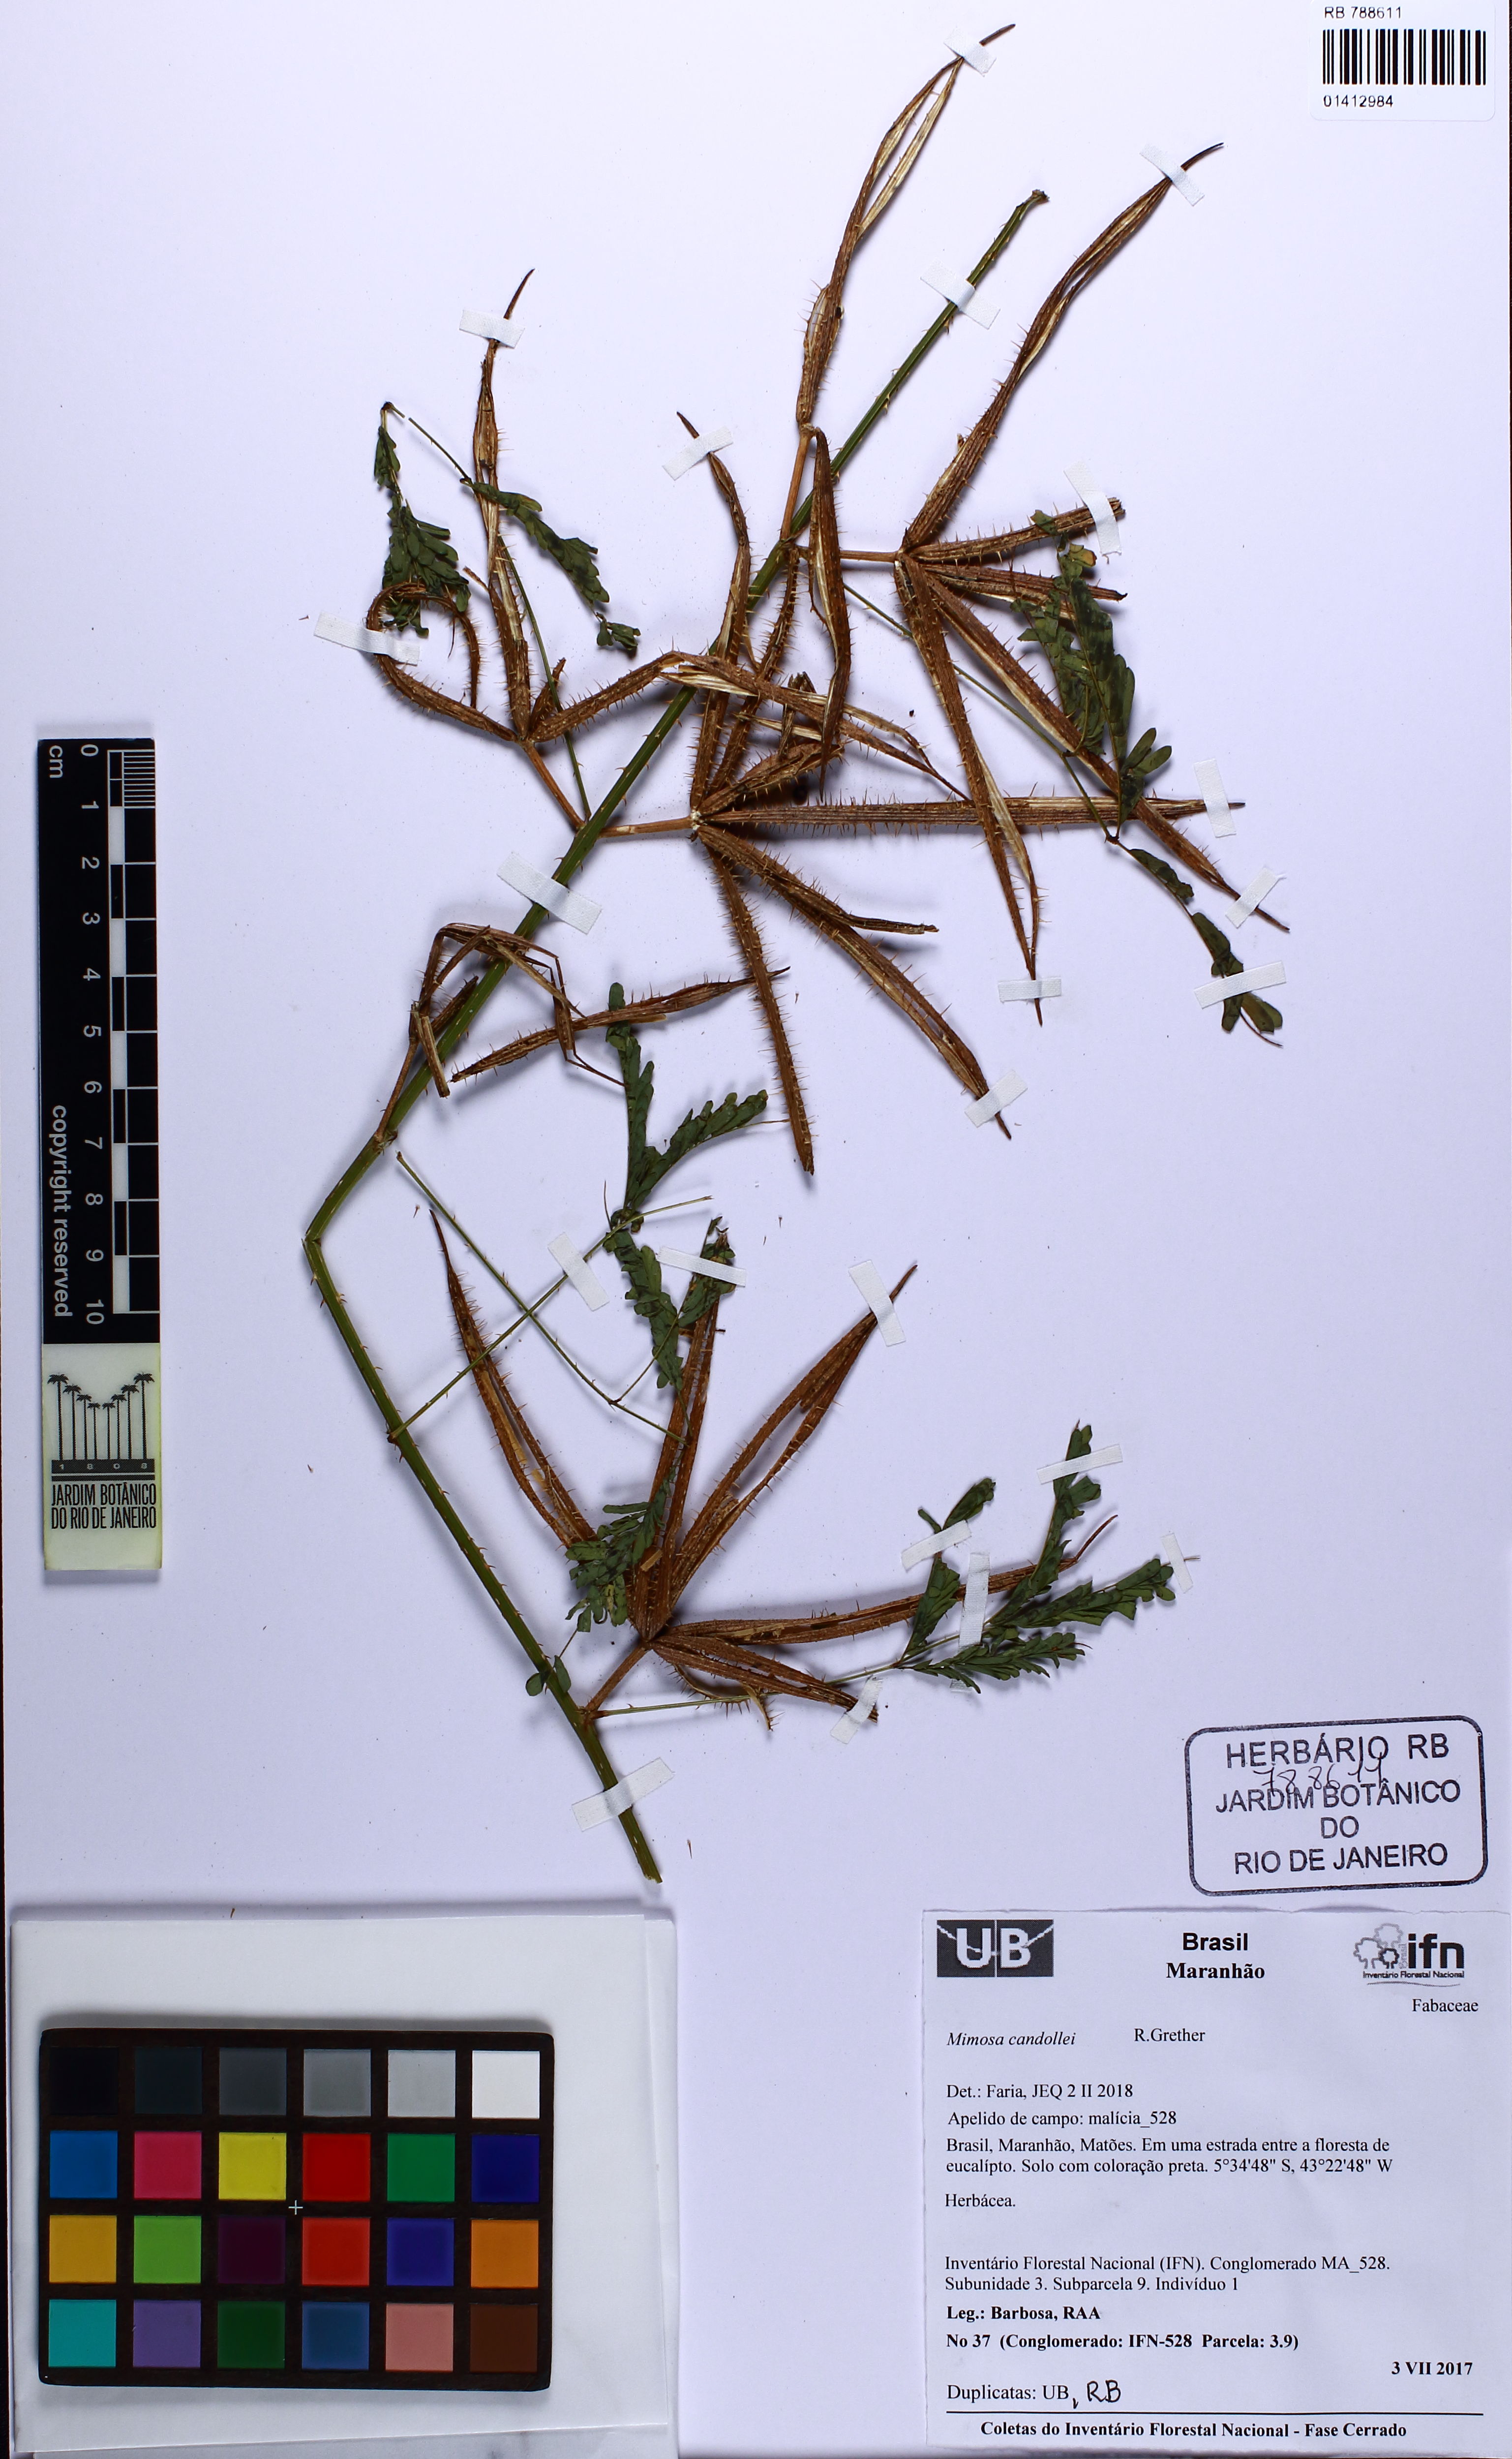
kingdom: Plantae
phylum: Tracheophyta
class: Magnoliopsida
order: Fabales
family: Fabaceae
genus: Mimosa
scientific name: Mimosa candollei
